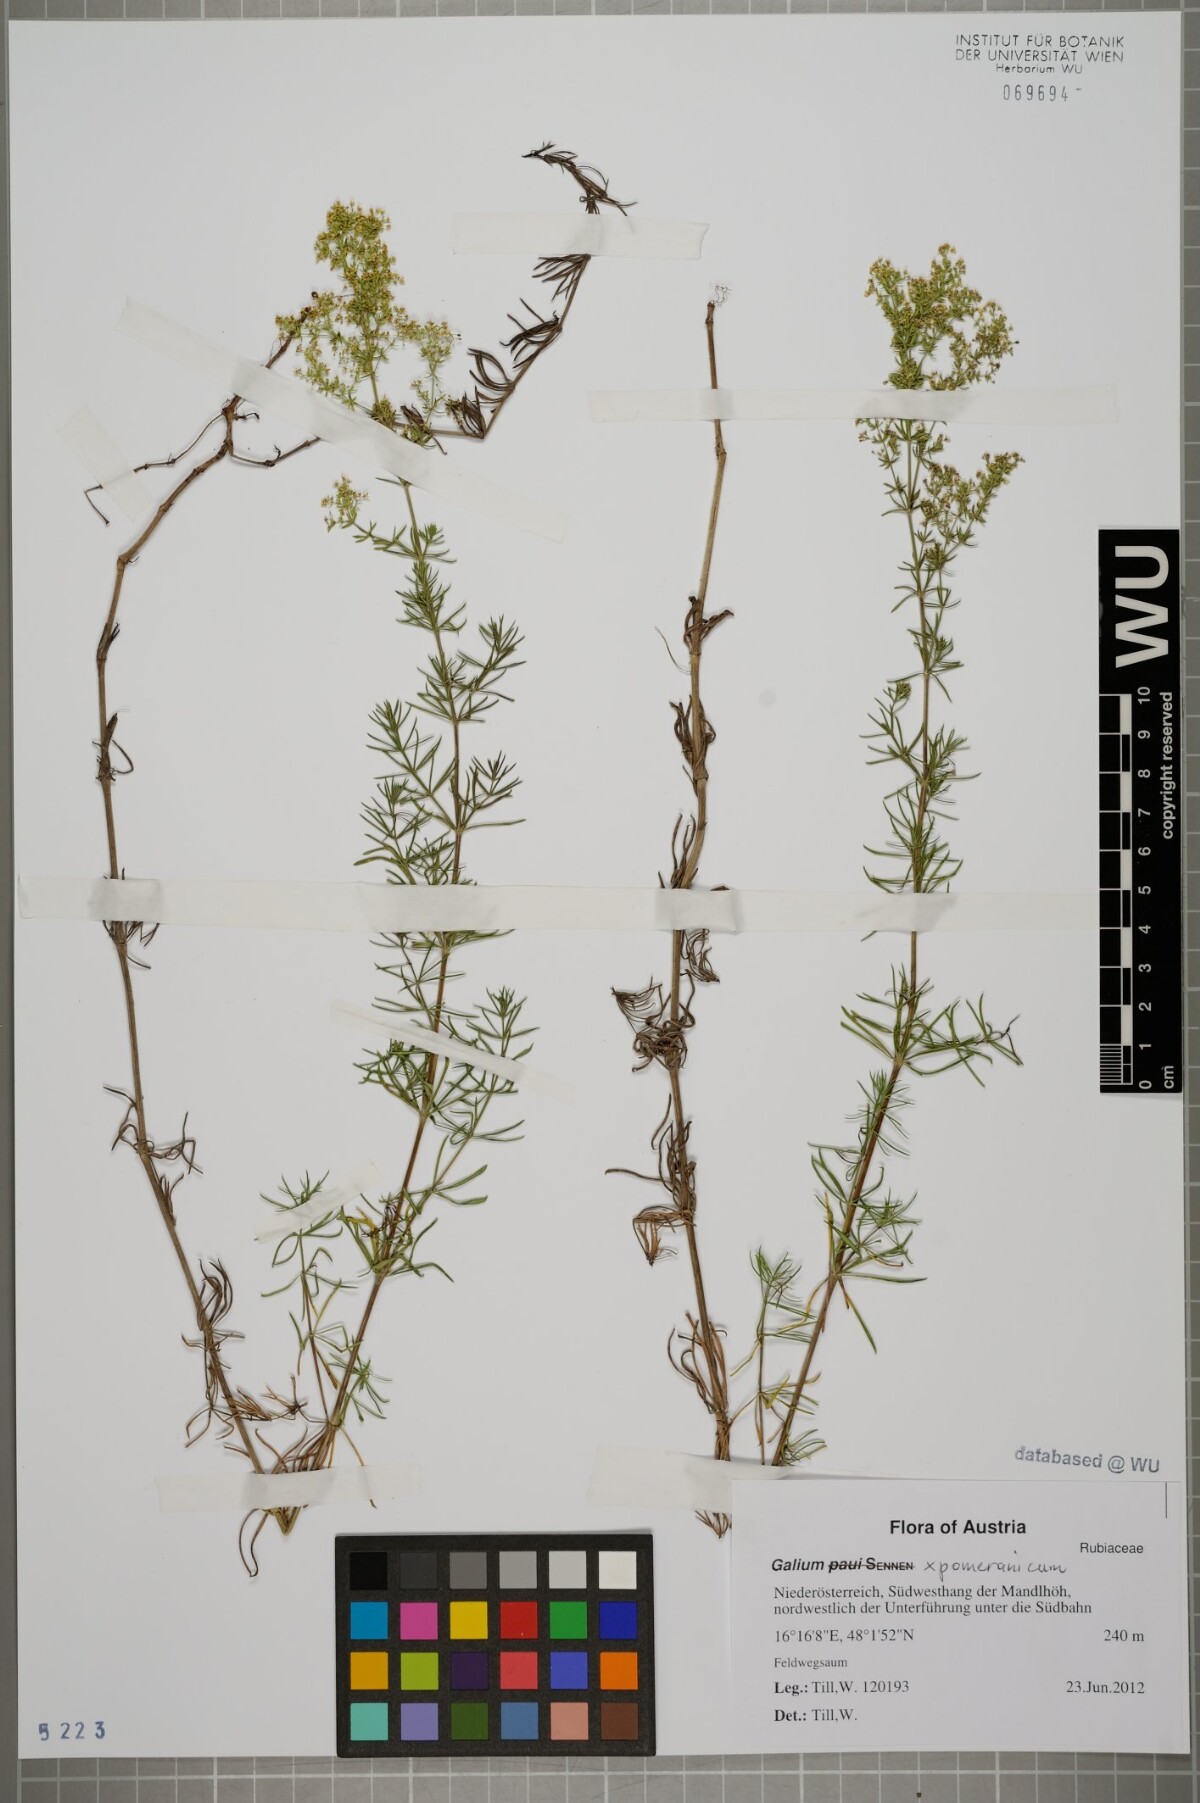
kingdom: Plantae
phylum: Tracheophyta
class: Magnoliopsida
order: Gentianales
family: Rubiaceae
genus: Galium
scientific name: Galium pomeranicum
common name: Bedstraw
